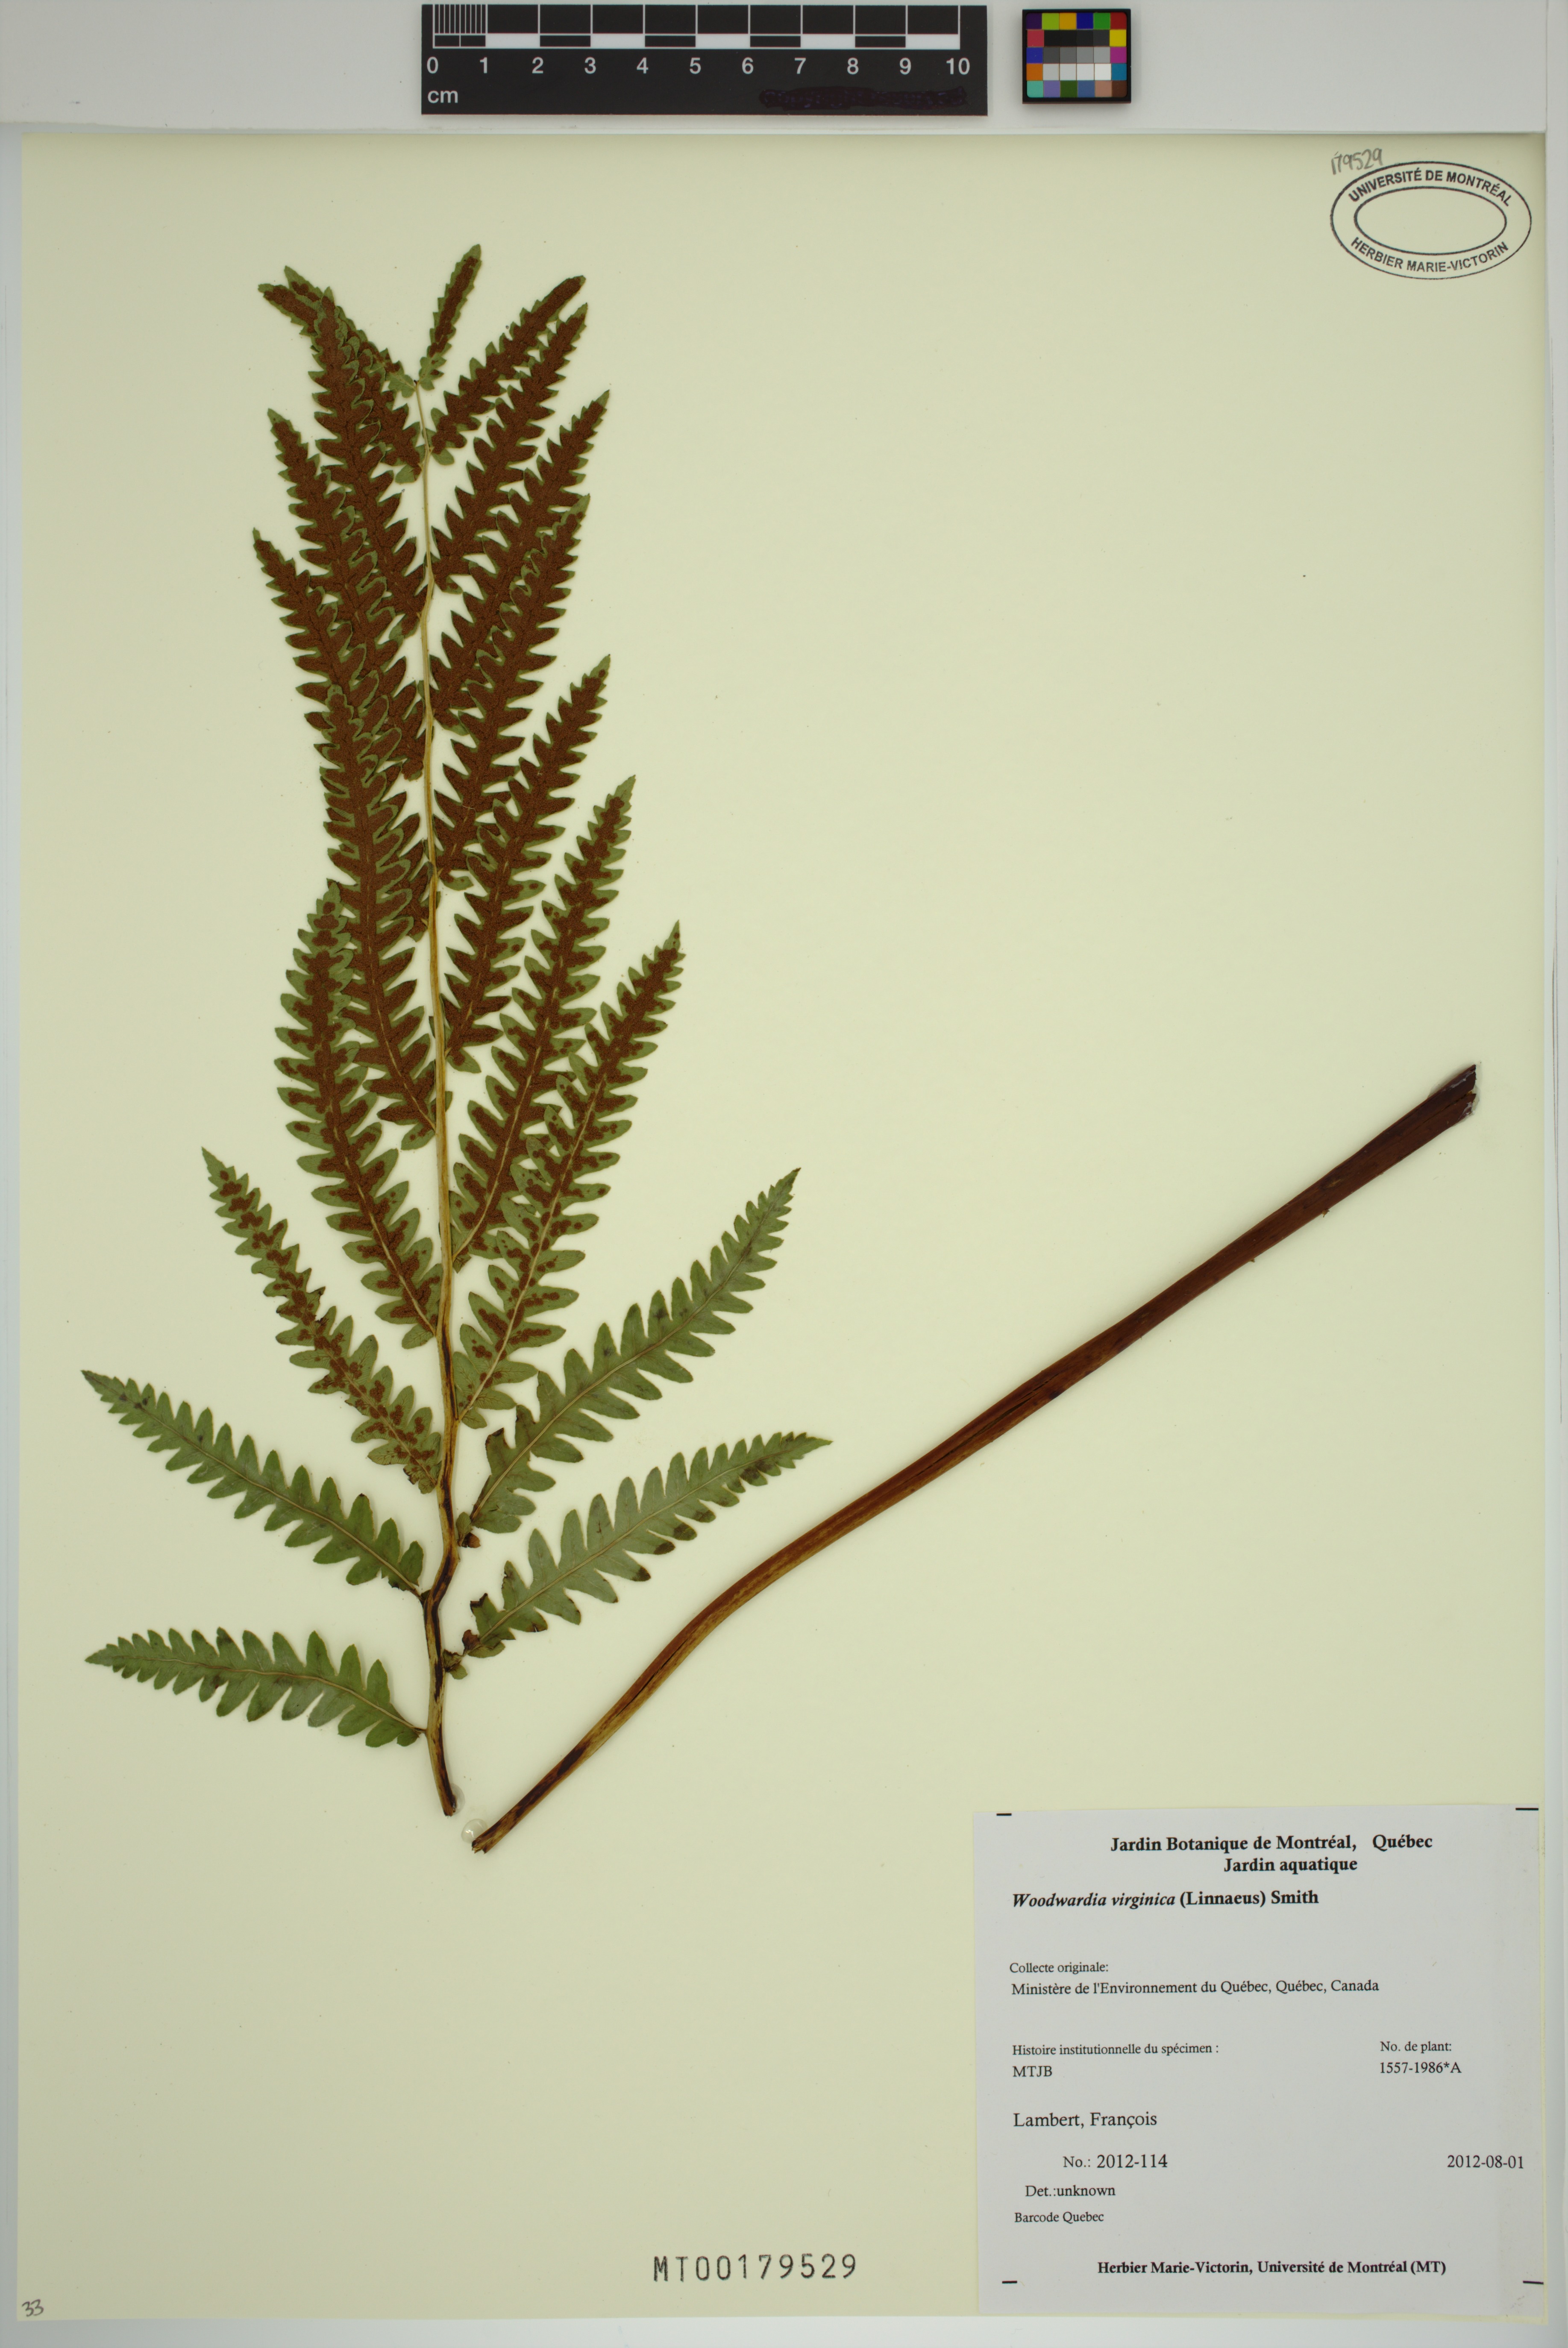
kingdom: Plantae
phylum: Tracheophyta
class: Polypodiopsida
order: Polypodiales
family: Blechnaceae
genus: Anchistea
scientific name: Anchistea virginica
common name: Virginia chain fern
